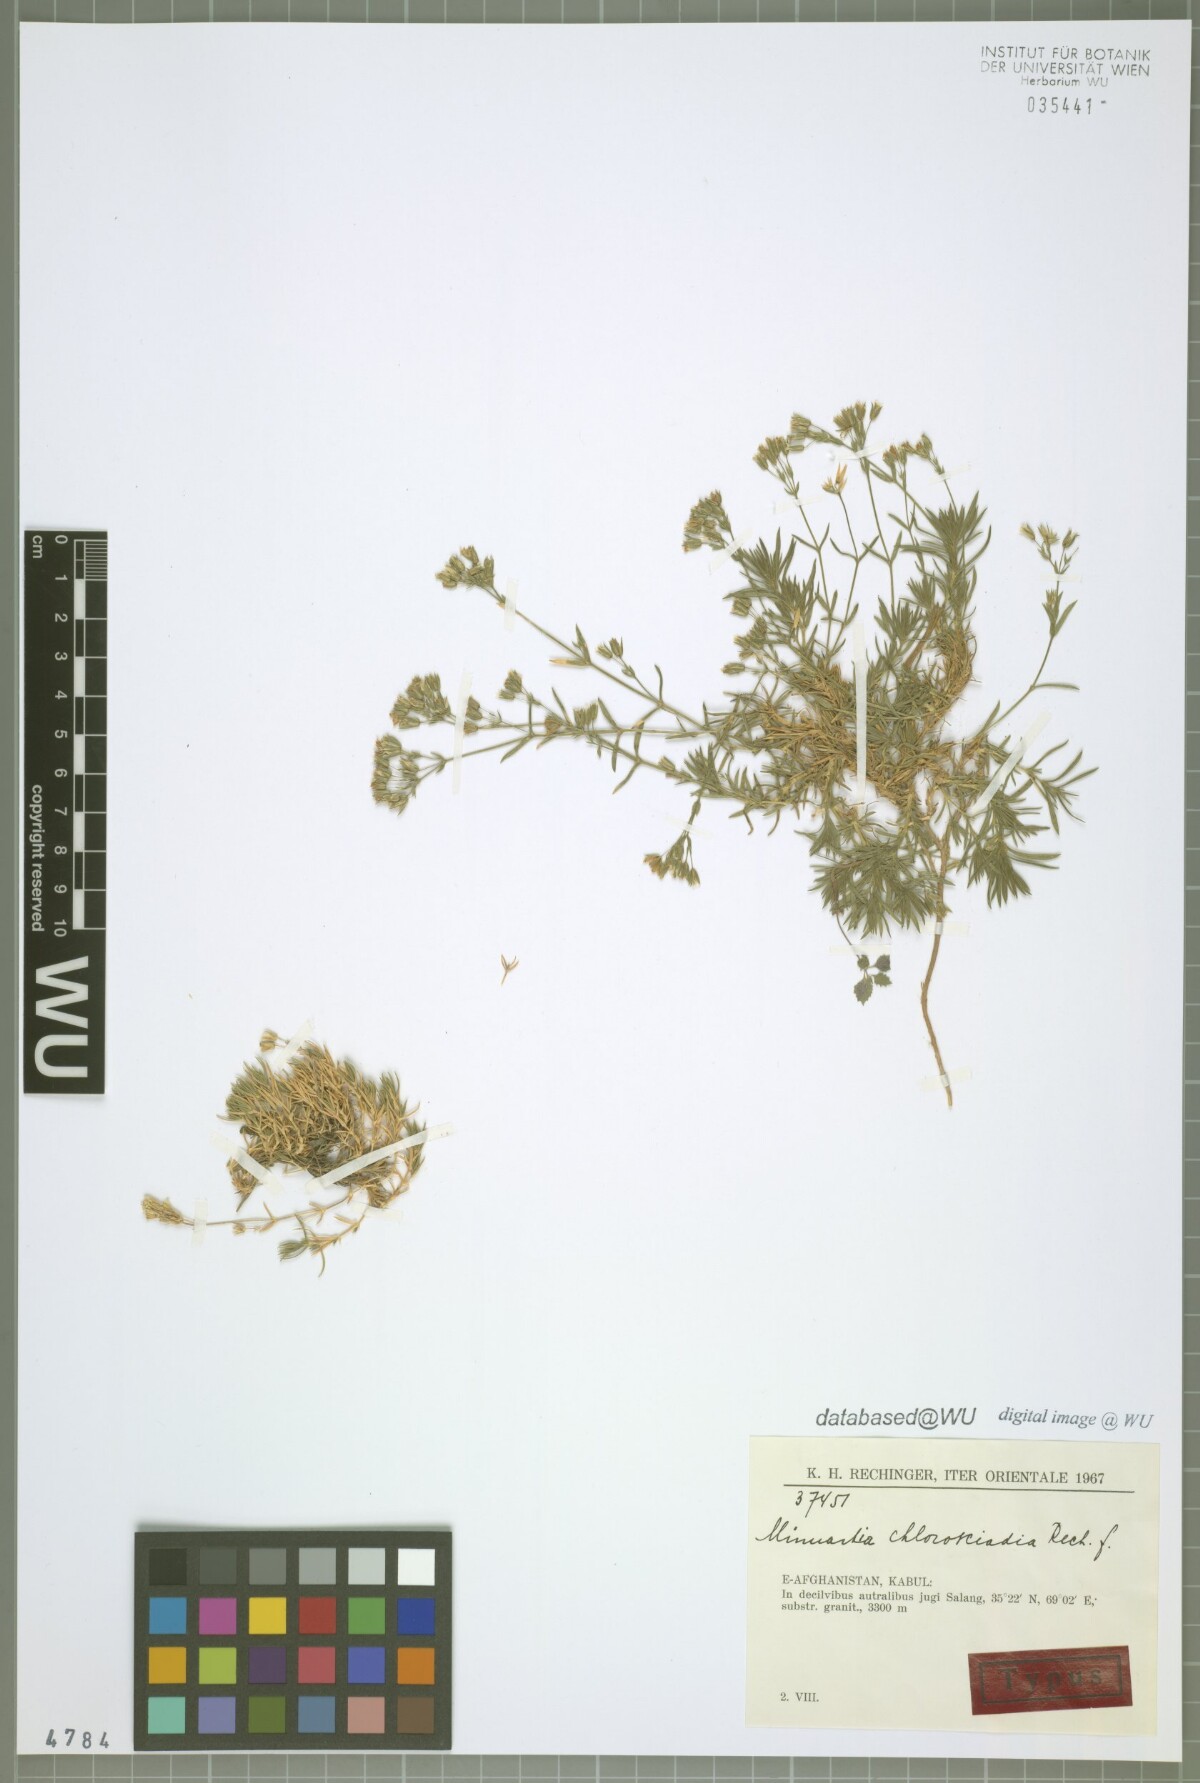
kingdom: Plantae
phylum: Tracheophyta
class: Magnoliopsida
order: Caryophyllales
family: Caryophyllaceae
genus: Sabulina
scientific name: Sabulina chlorosciadia
